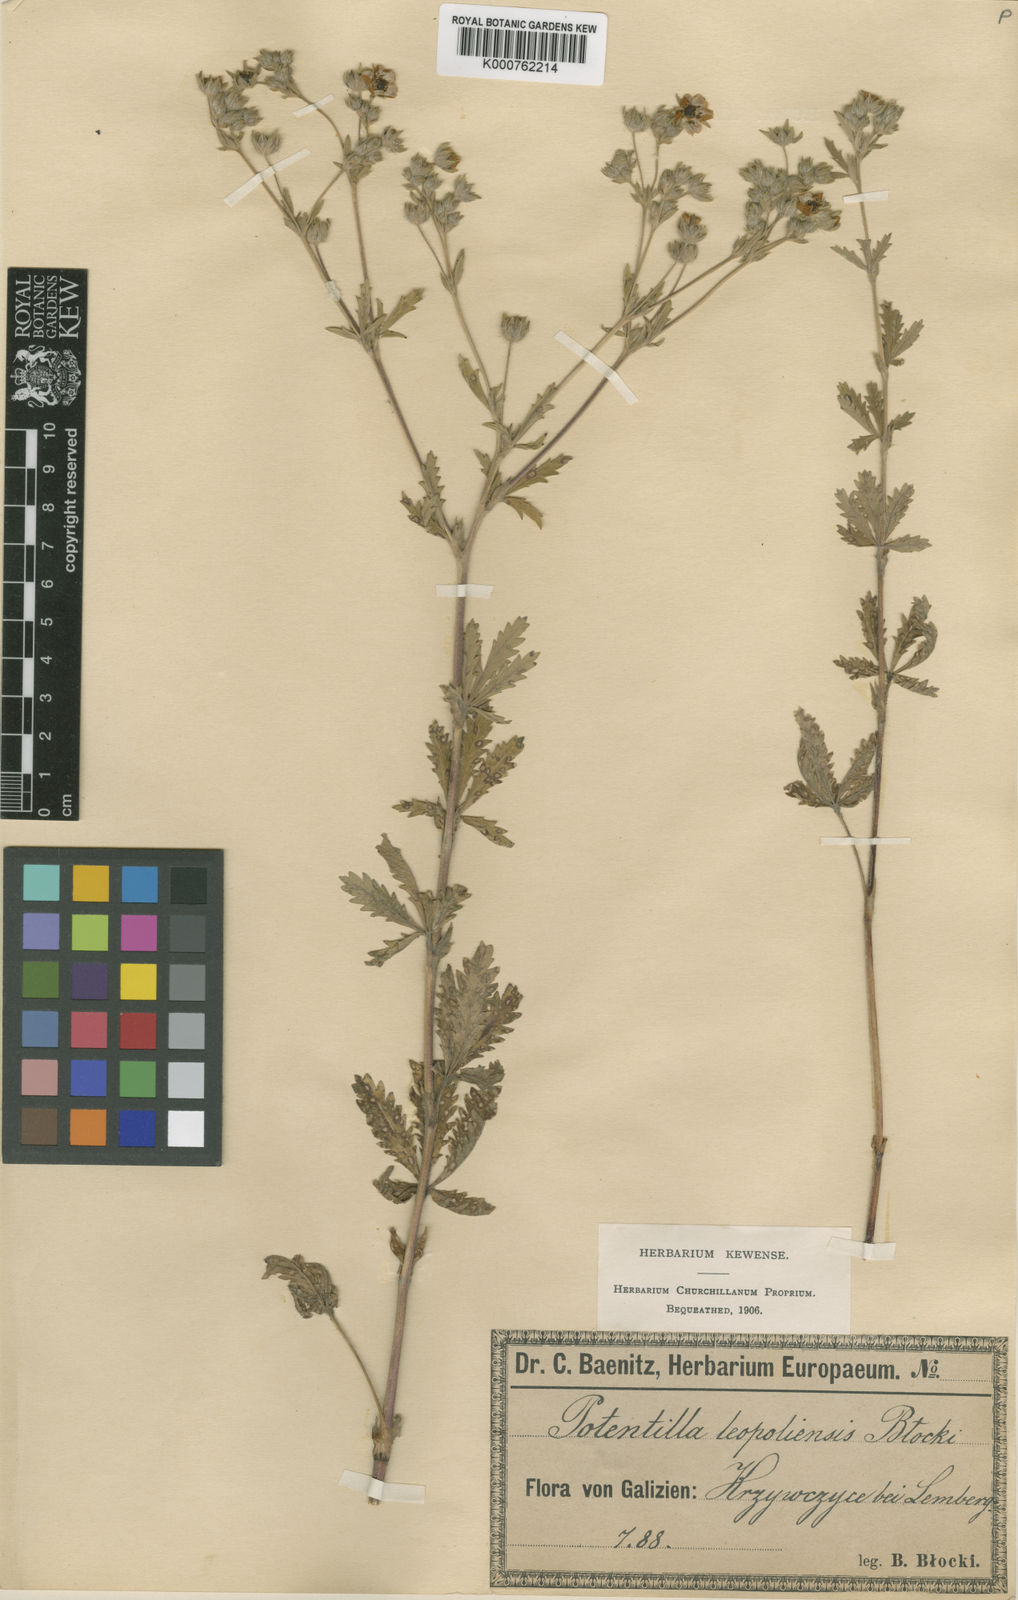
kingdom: Plantae
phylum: Tracheophyta
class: Magnoliopsida
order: Rosales
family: Rosaceae
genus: Potentilla
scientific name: Potentilla inclinata
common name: Grey cinquefoil
